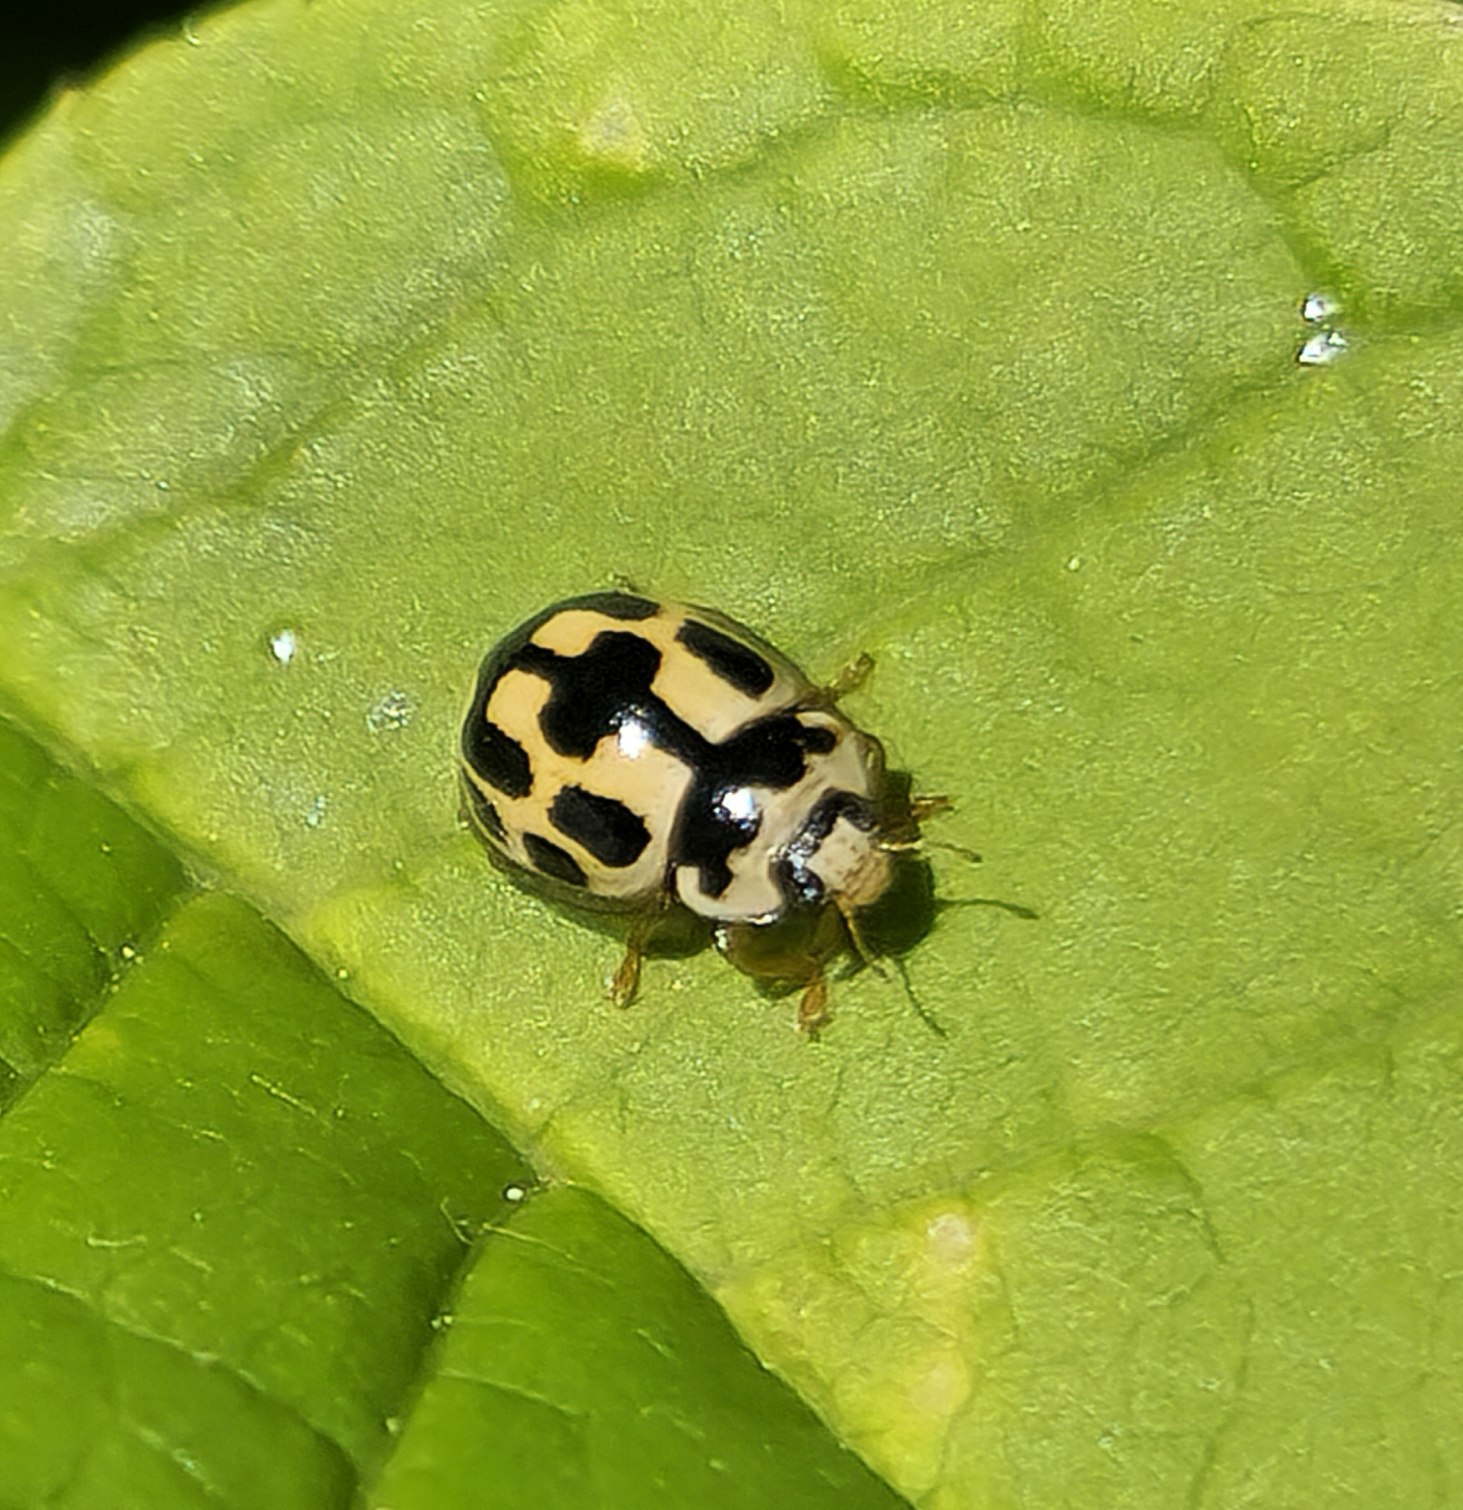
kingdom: Animalia
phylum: Arthropoda
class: Insecta
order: Coleoptera
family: Coccinellidae
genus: Propylaea
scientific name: Propylaea quatuordecimpunctata
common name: Skakbræt
